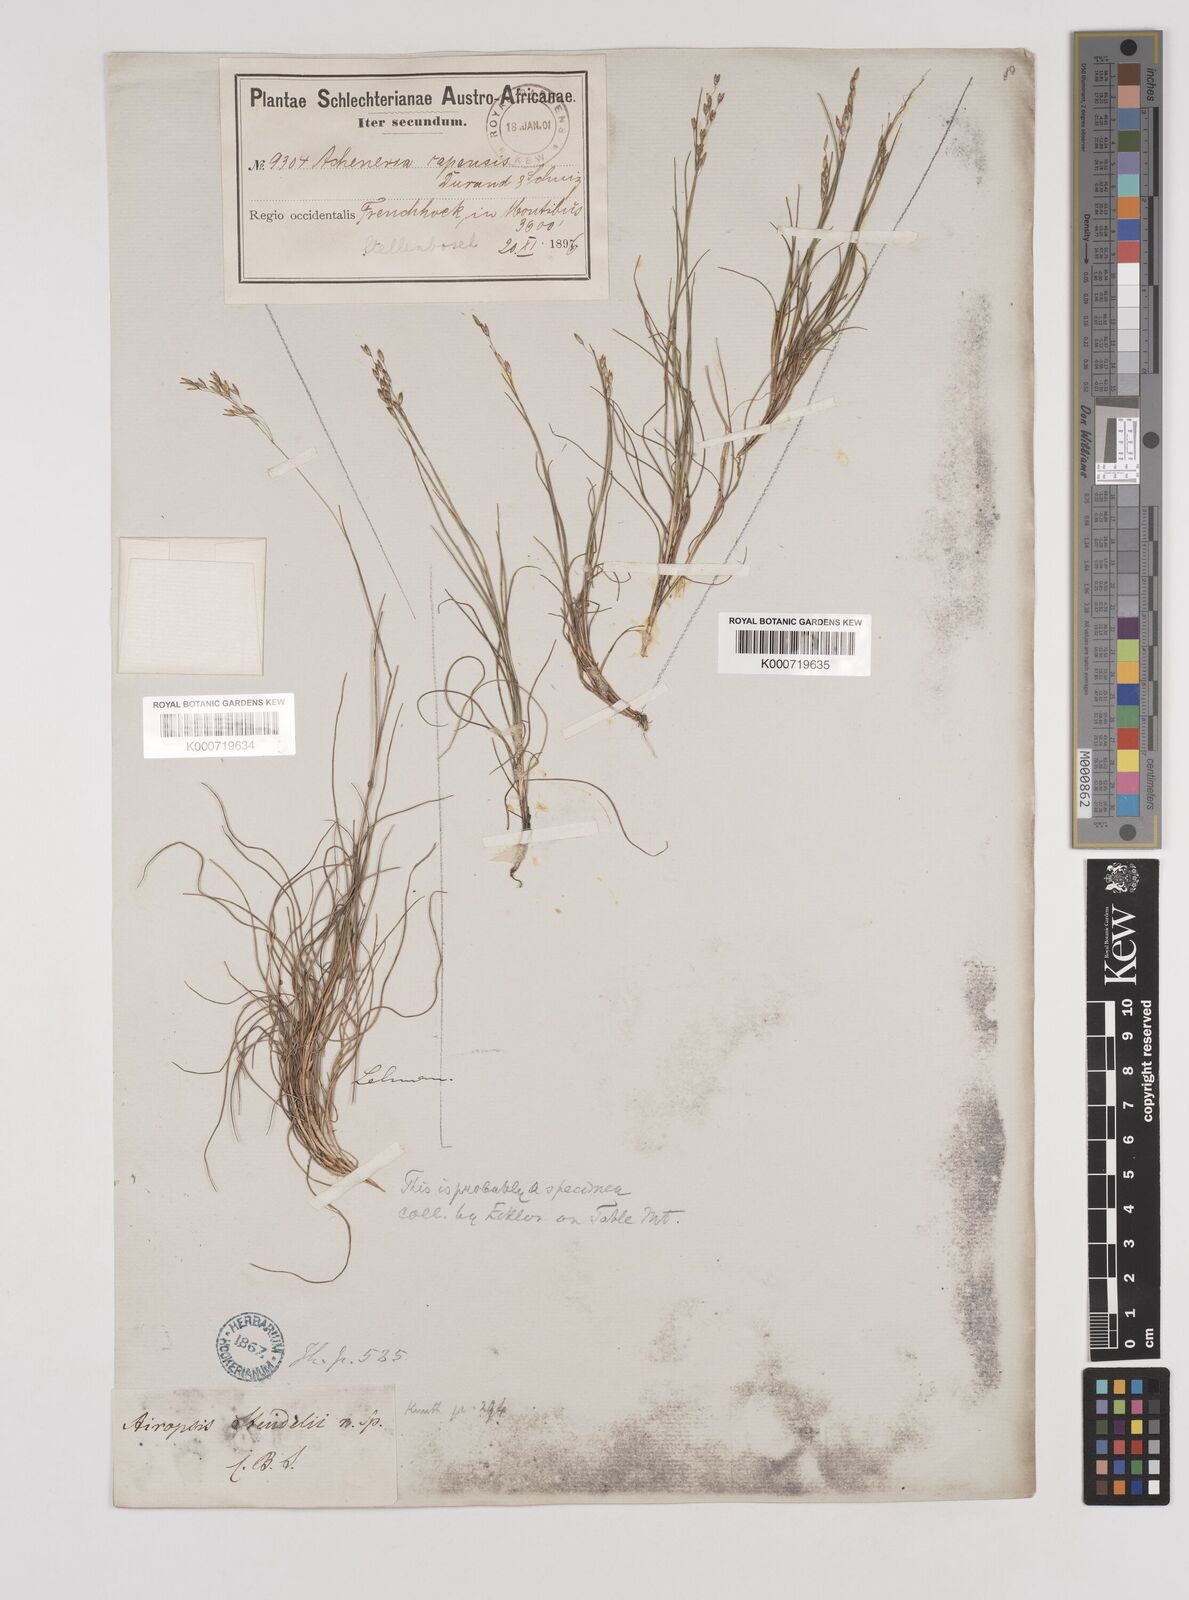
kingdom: Plantae
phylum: Tracheophyta
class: Liliopsida
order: Poales
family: Poaceae
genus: Pentameris
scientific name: Pentameris malouinensis
